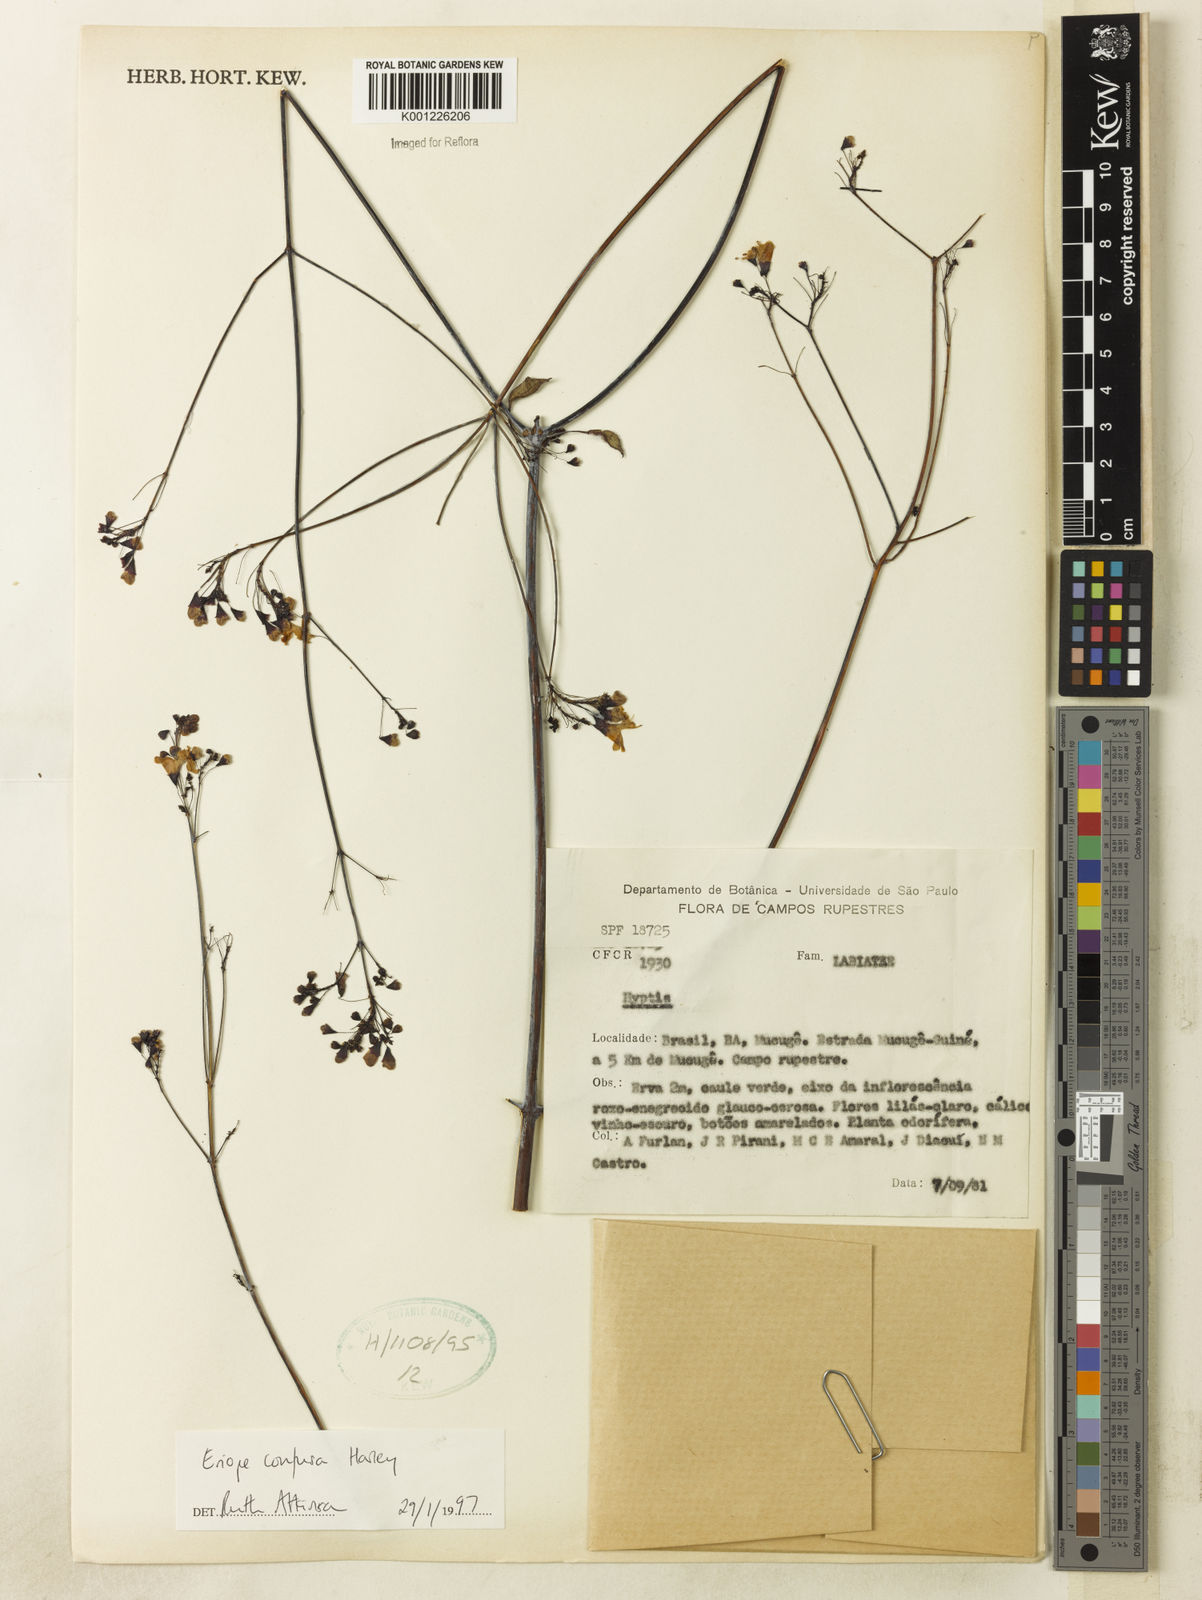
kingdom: Plantae
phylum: Tracheophyta
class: Magnoliopsida
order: Lamiales
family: Lamiaceae
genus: Eriope
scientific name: Eriope confusa
